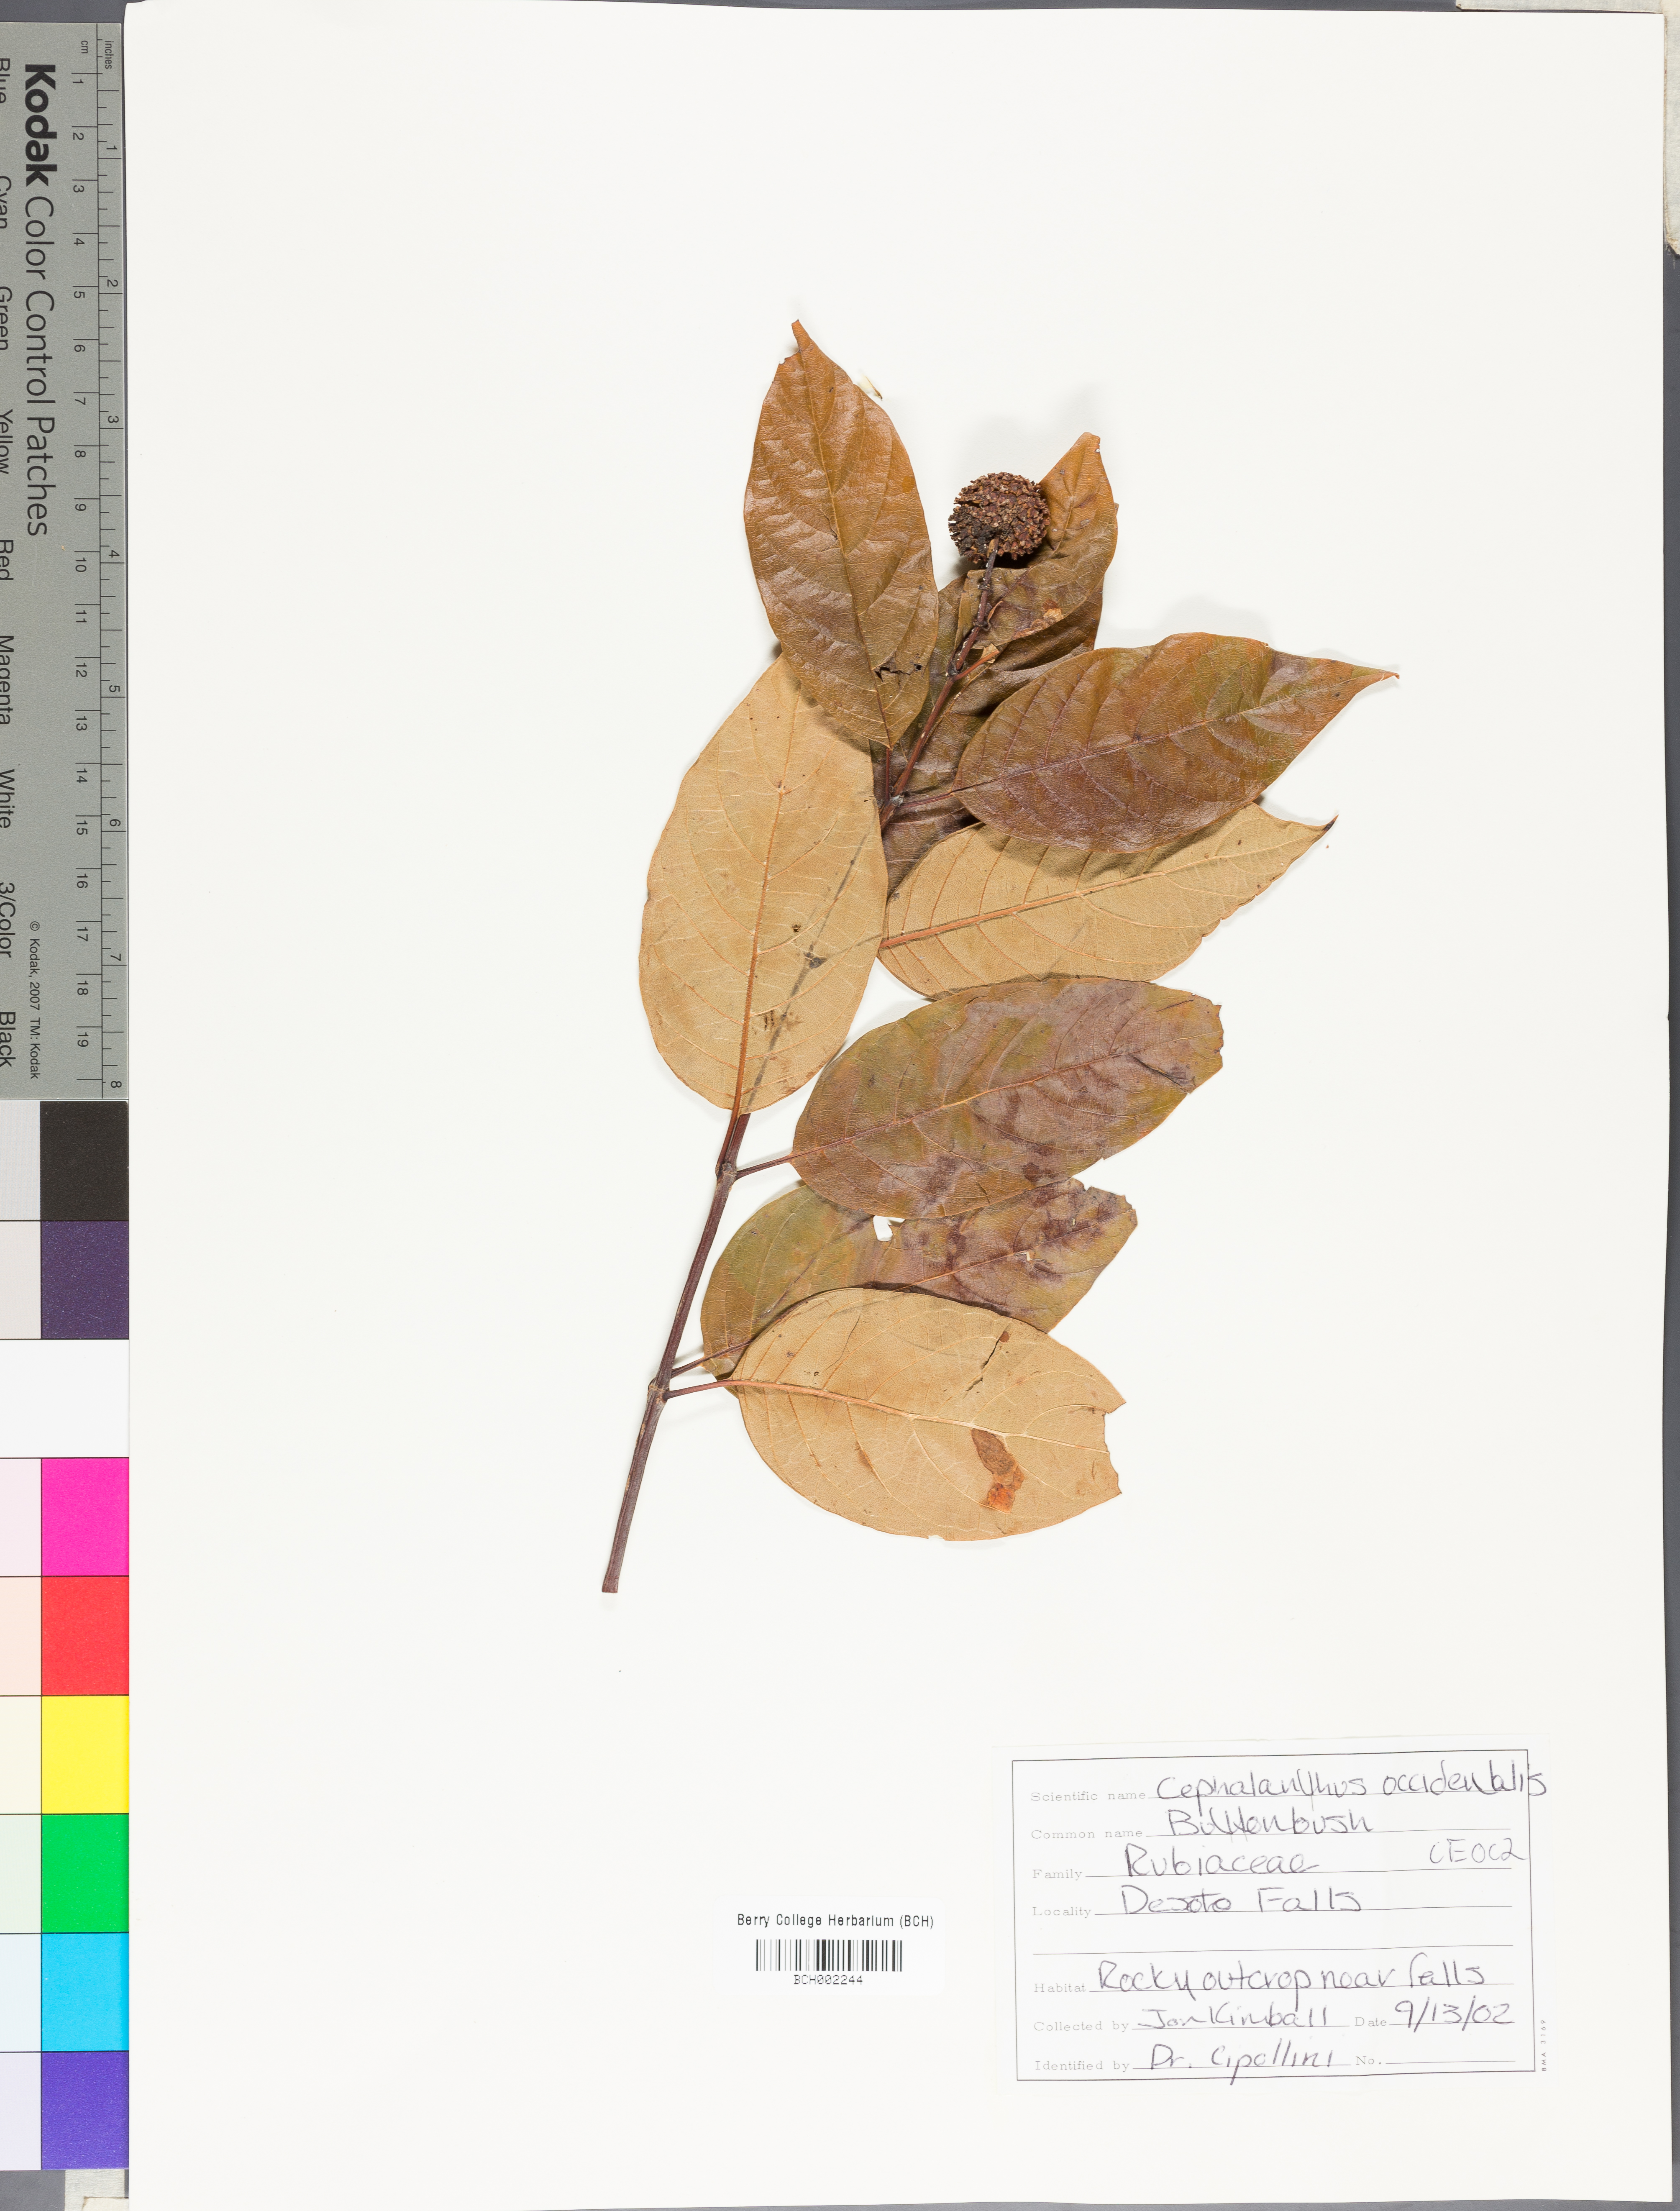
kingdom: Plantae
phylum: Tracheophyta
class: Magnoliopsida
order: Gentianales
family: Rubiaceae
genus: Cephalanthus
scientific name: Cephalanthus occidentalis
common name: Button-willow
